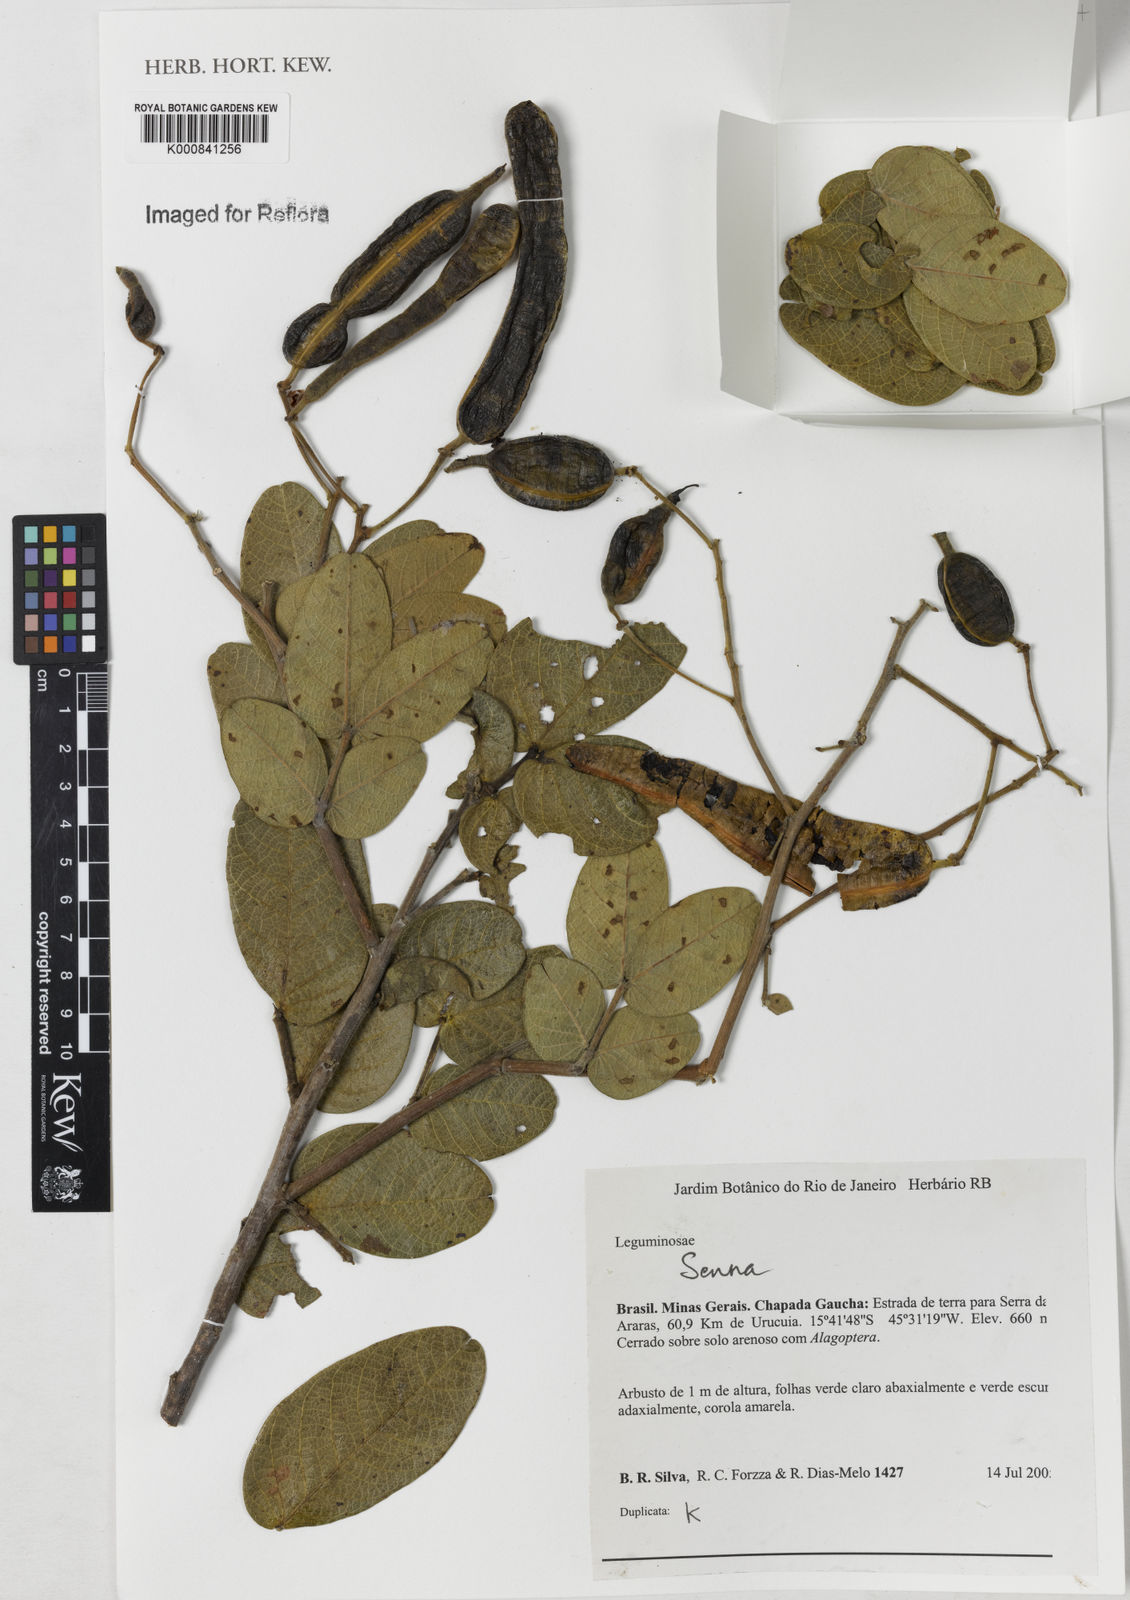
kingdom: Plantae
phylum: Tracheophyta
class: Magnoliopsida
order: Fabales
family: Fabaceae
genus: Senna
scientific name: Senna rugosa
